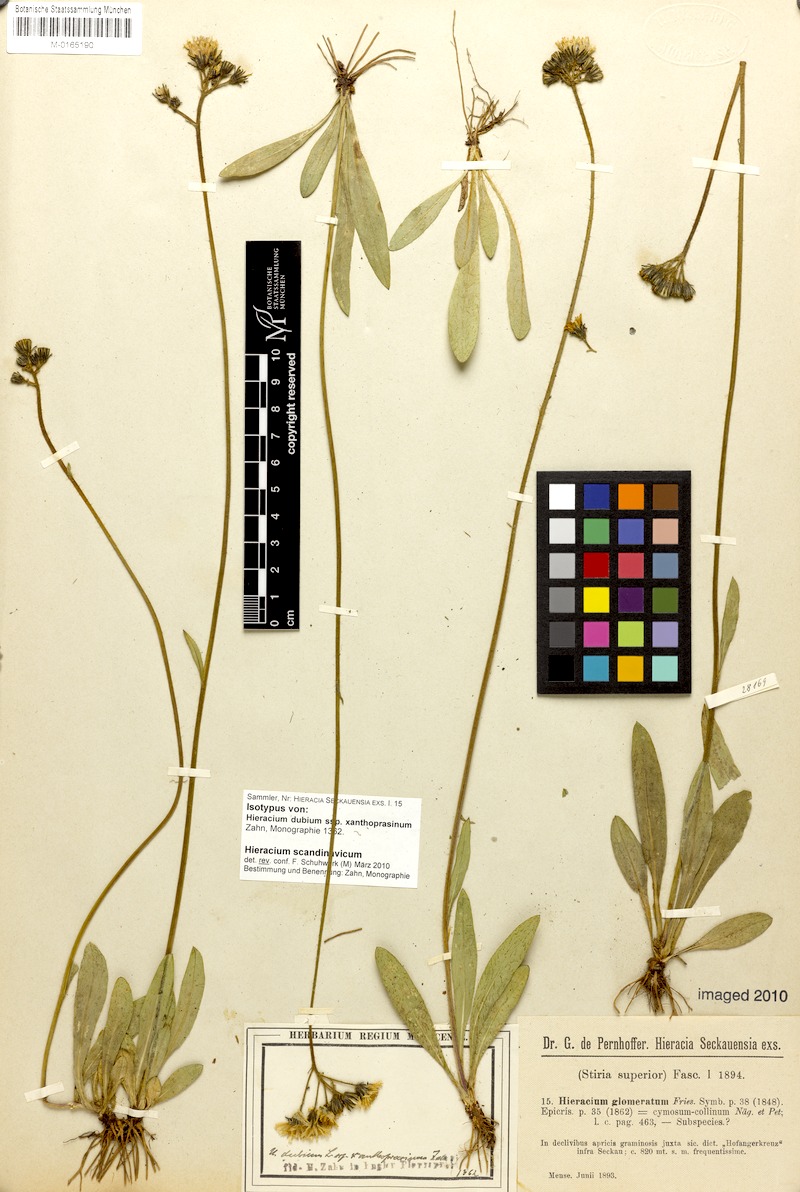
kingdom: Plantae
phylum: Tracheophyta
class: Magnoliopsida
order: Asterales
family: Asteraceae
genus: Pilosella
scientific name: Pilosella scandinavica
